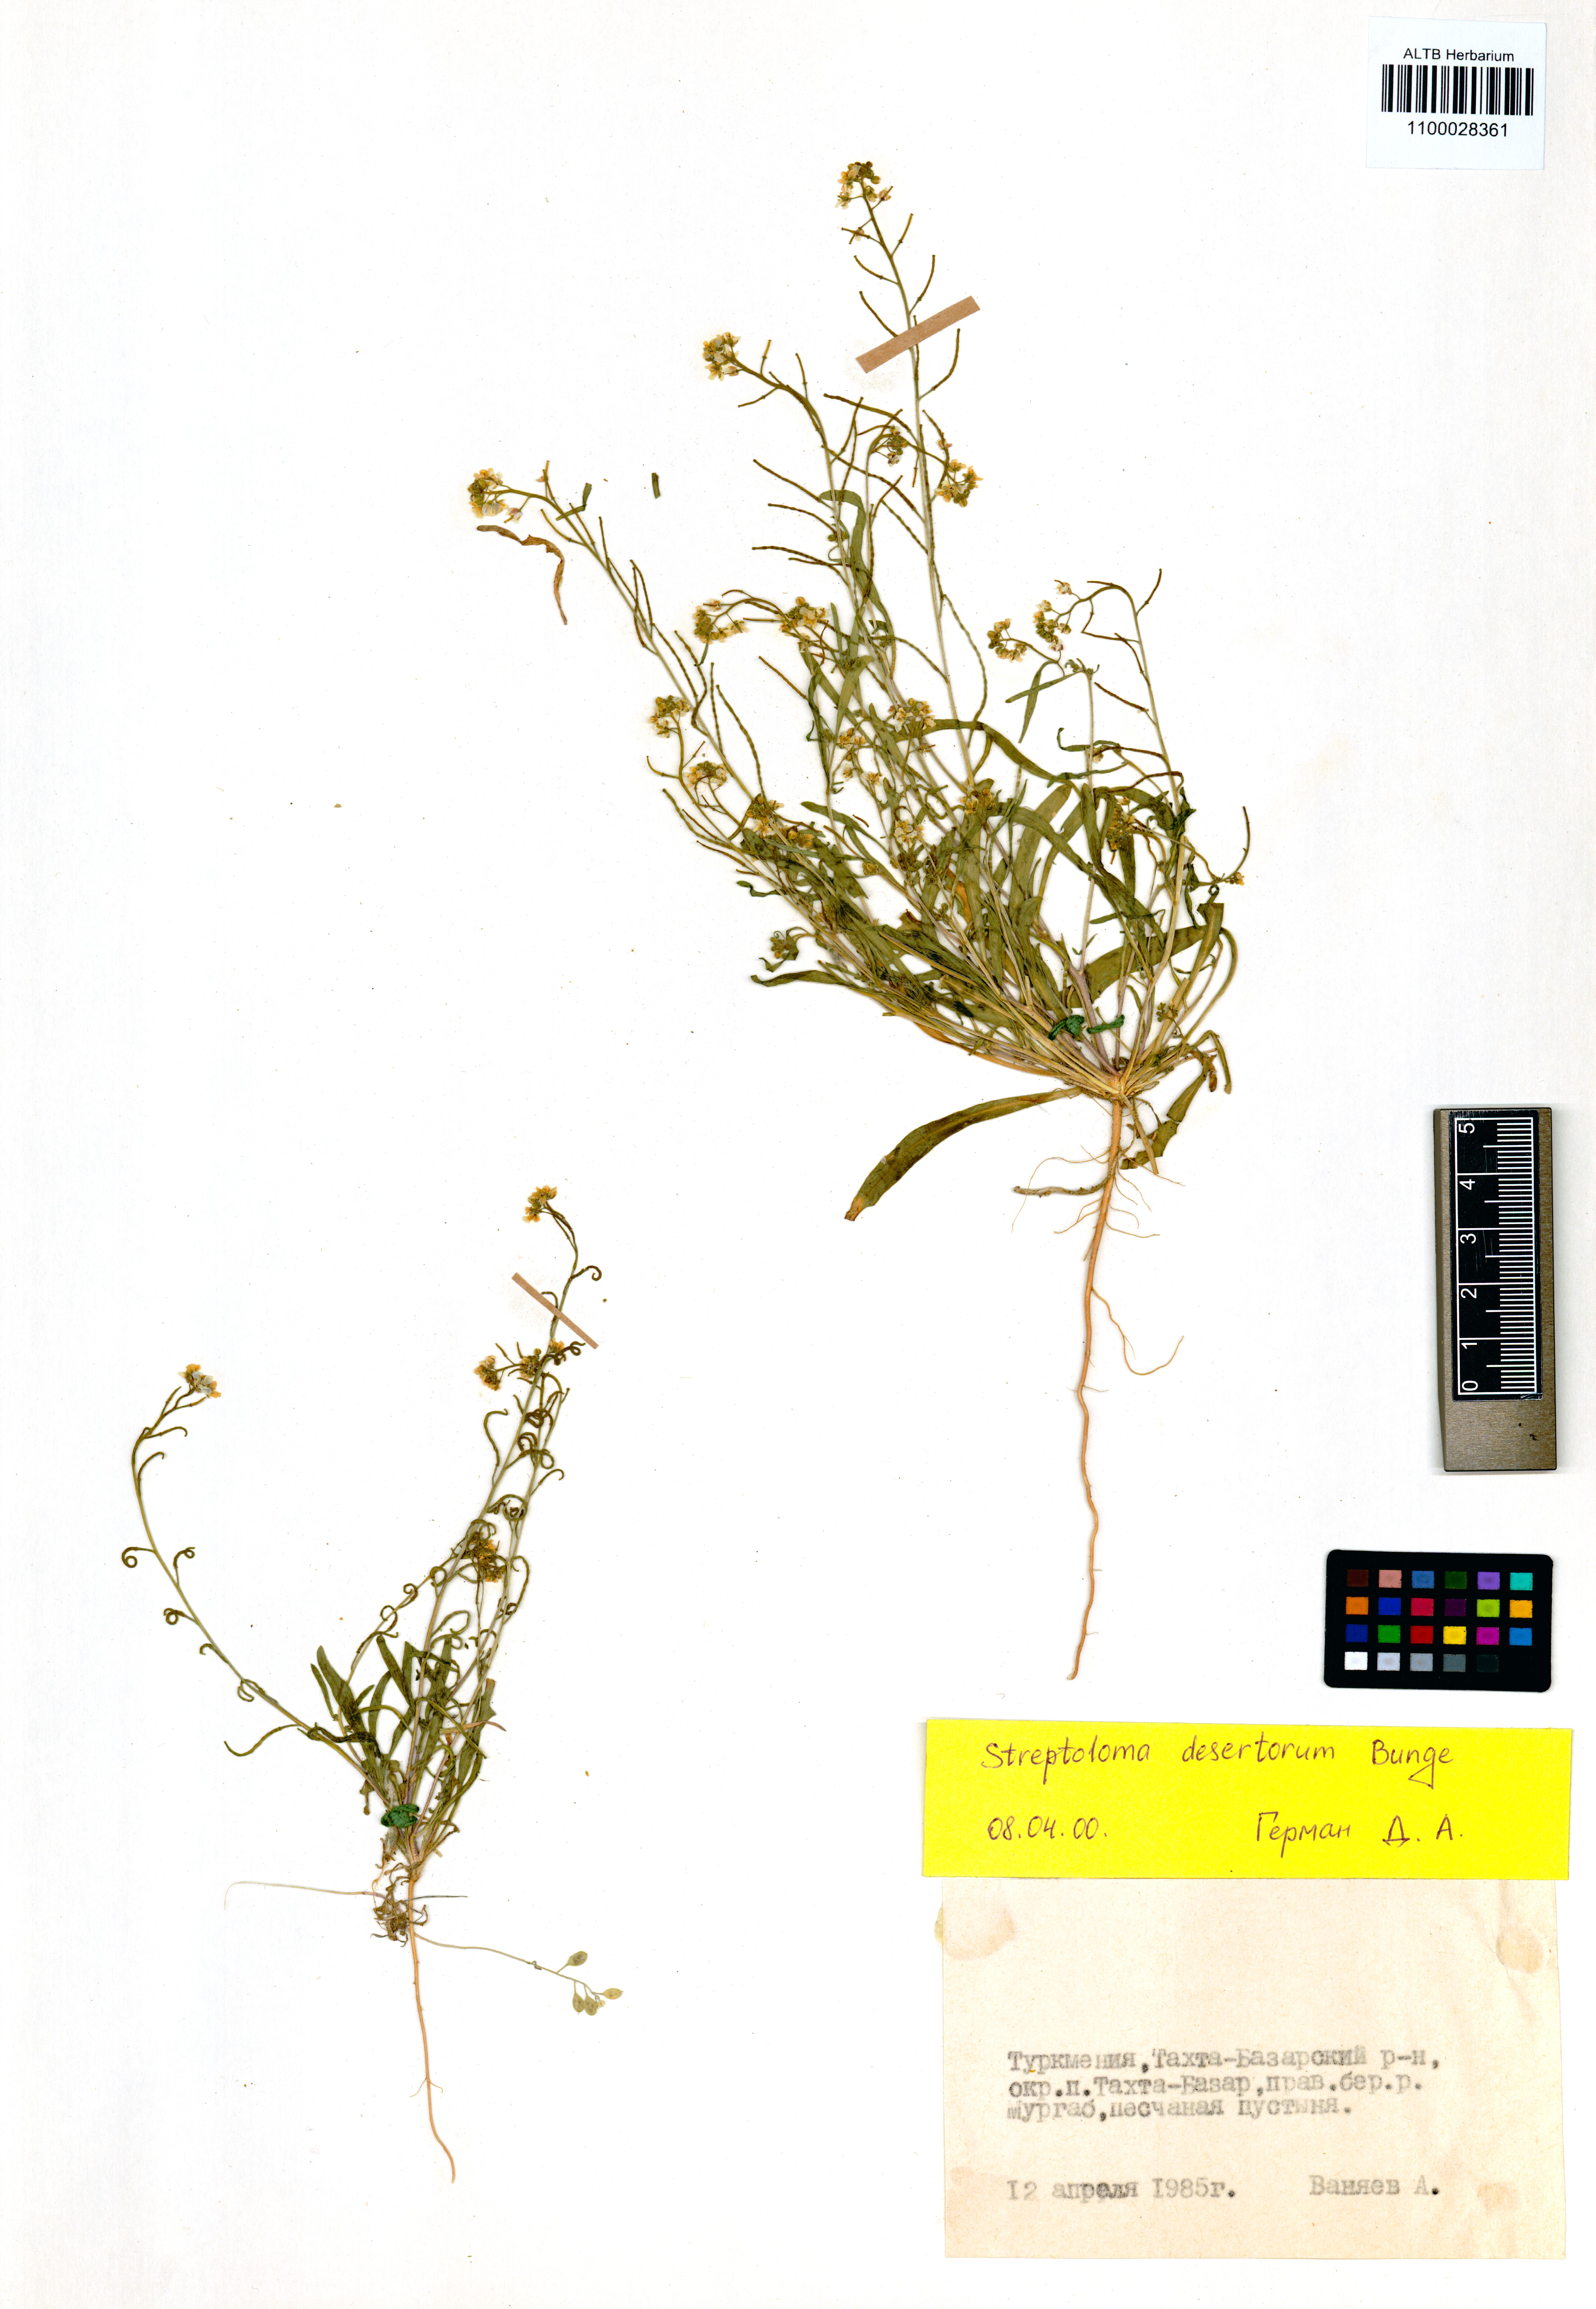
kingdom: Plantae
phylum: Tracheophyta
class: Magnoliopsida
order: Brassicales
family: Brassicaceae
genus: Streptoloma
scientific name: Streptoloma desertorum
